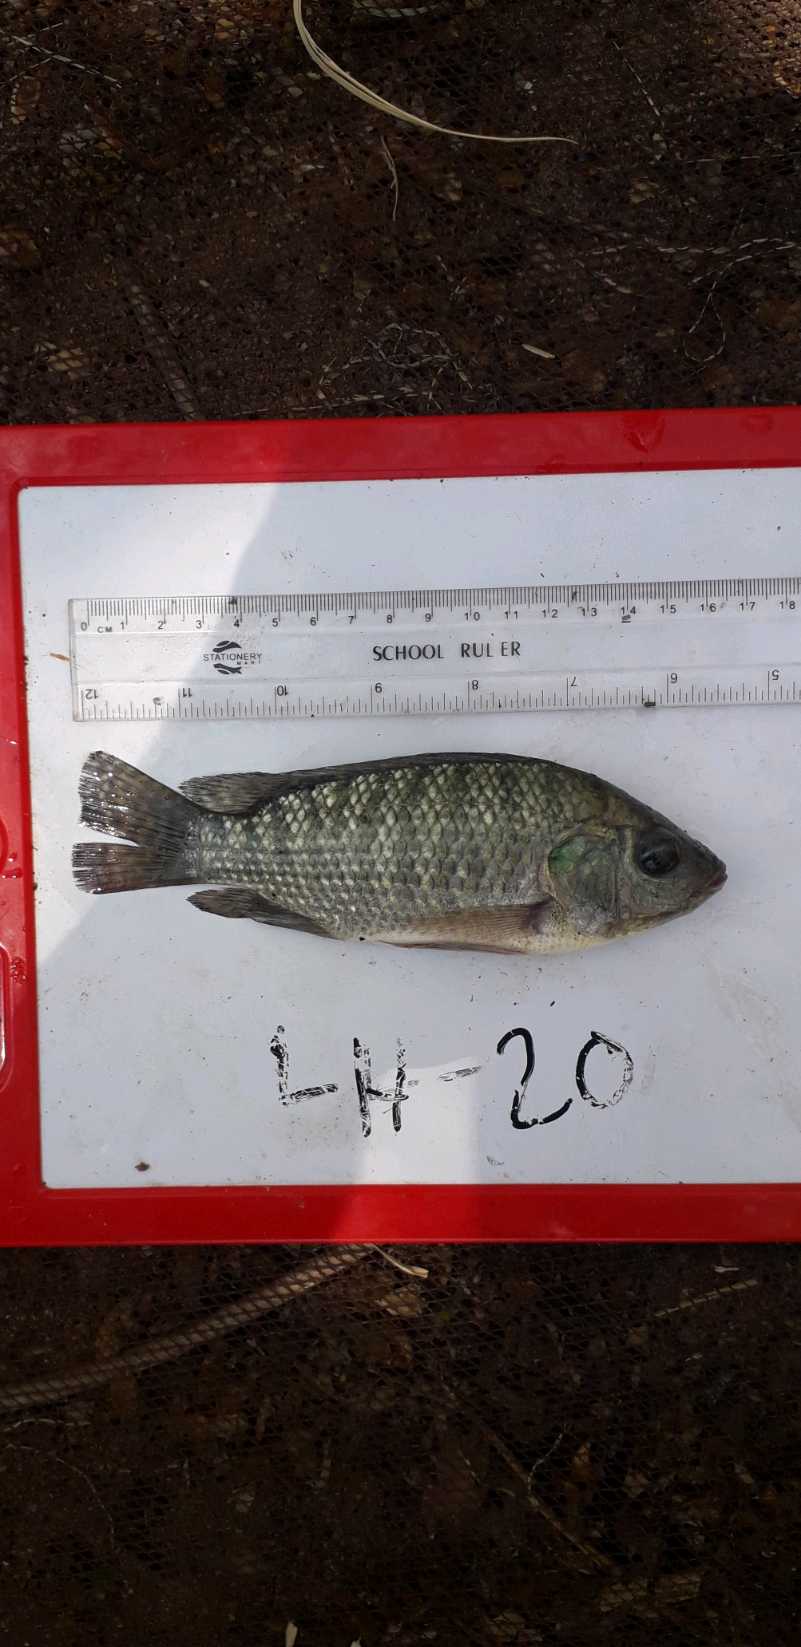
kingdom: Animalia
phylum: Chordata
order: Perciformes
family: Cichlidae
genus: Oreochromis
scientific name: Oreochromis leucostictus
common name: Blue spotted tilapia
